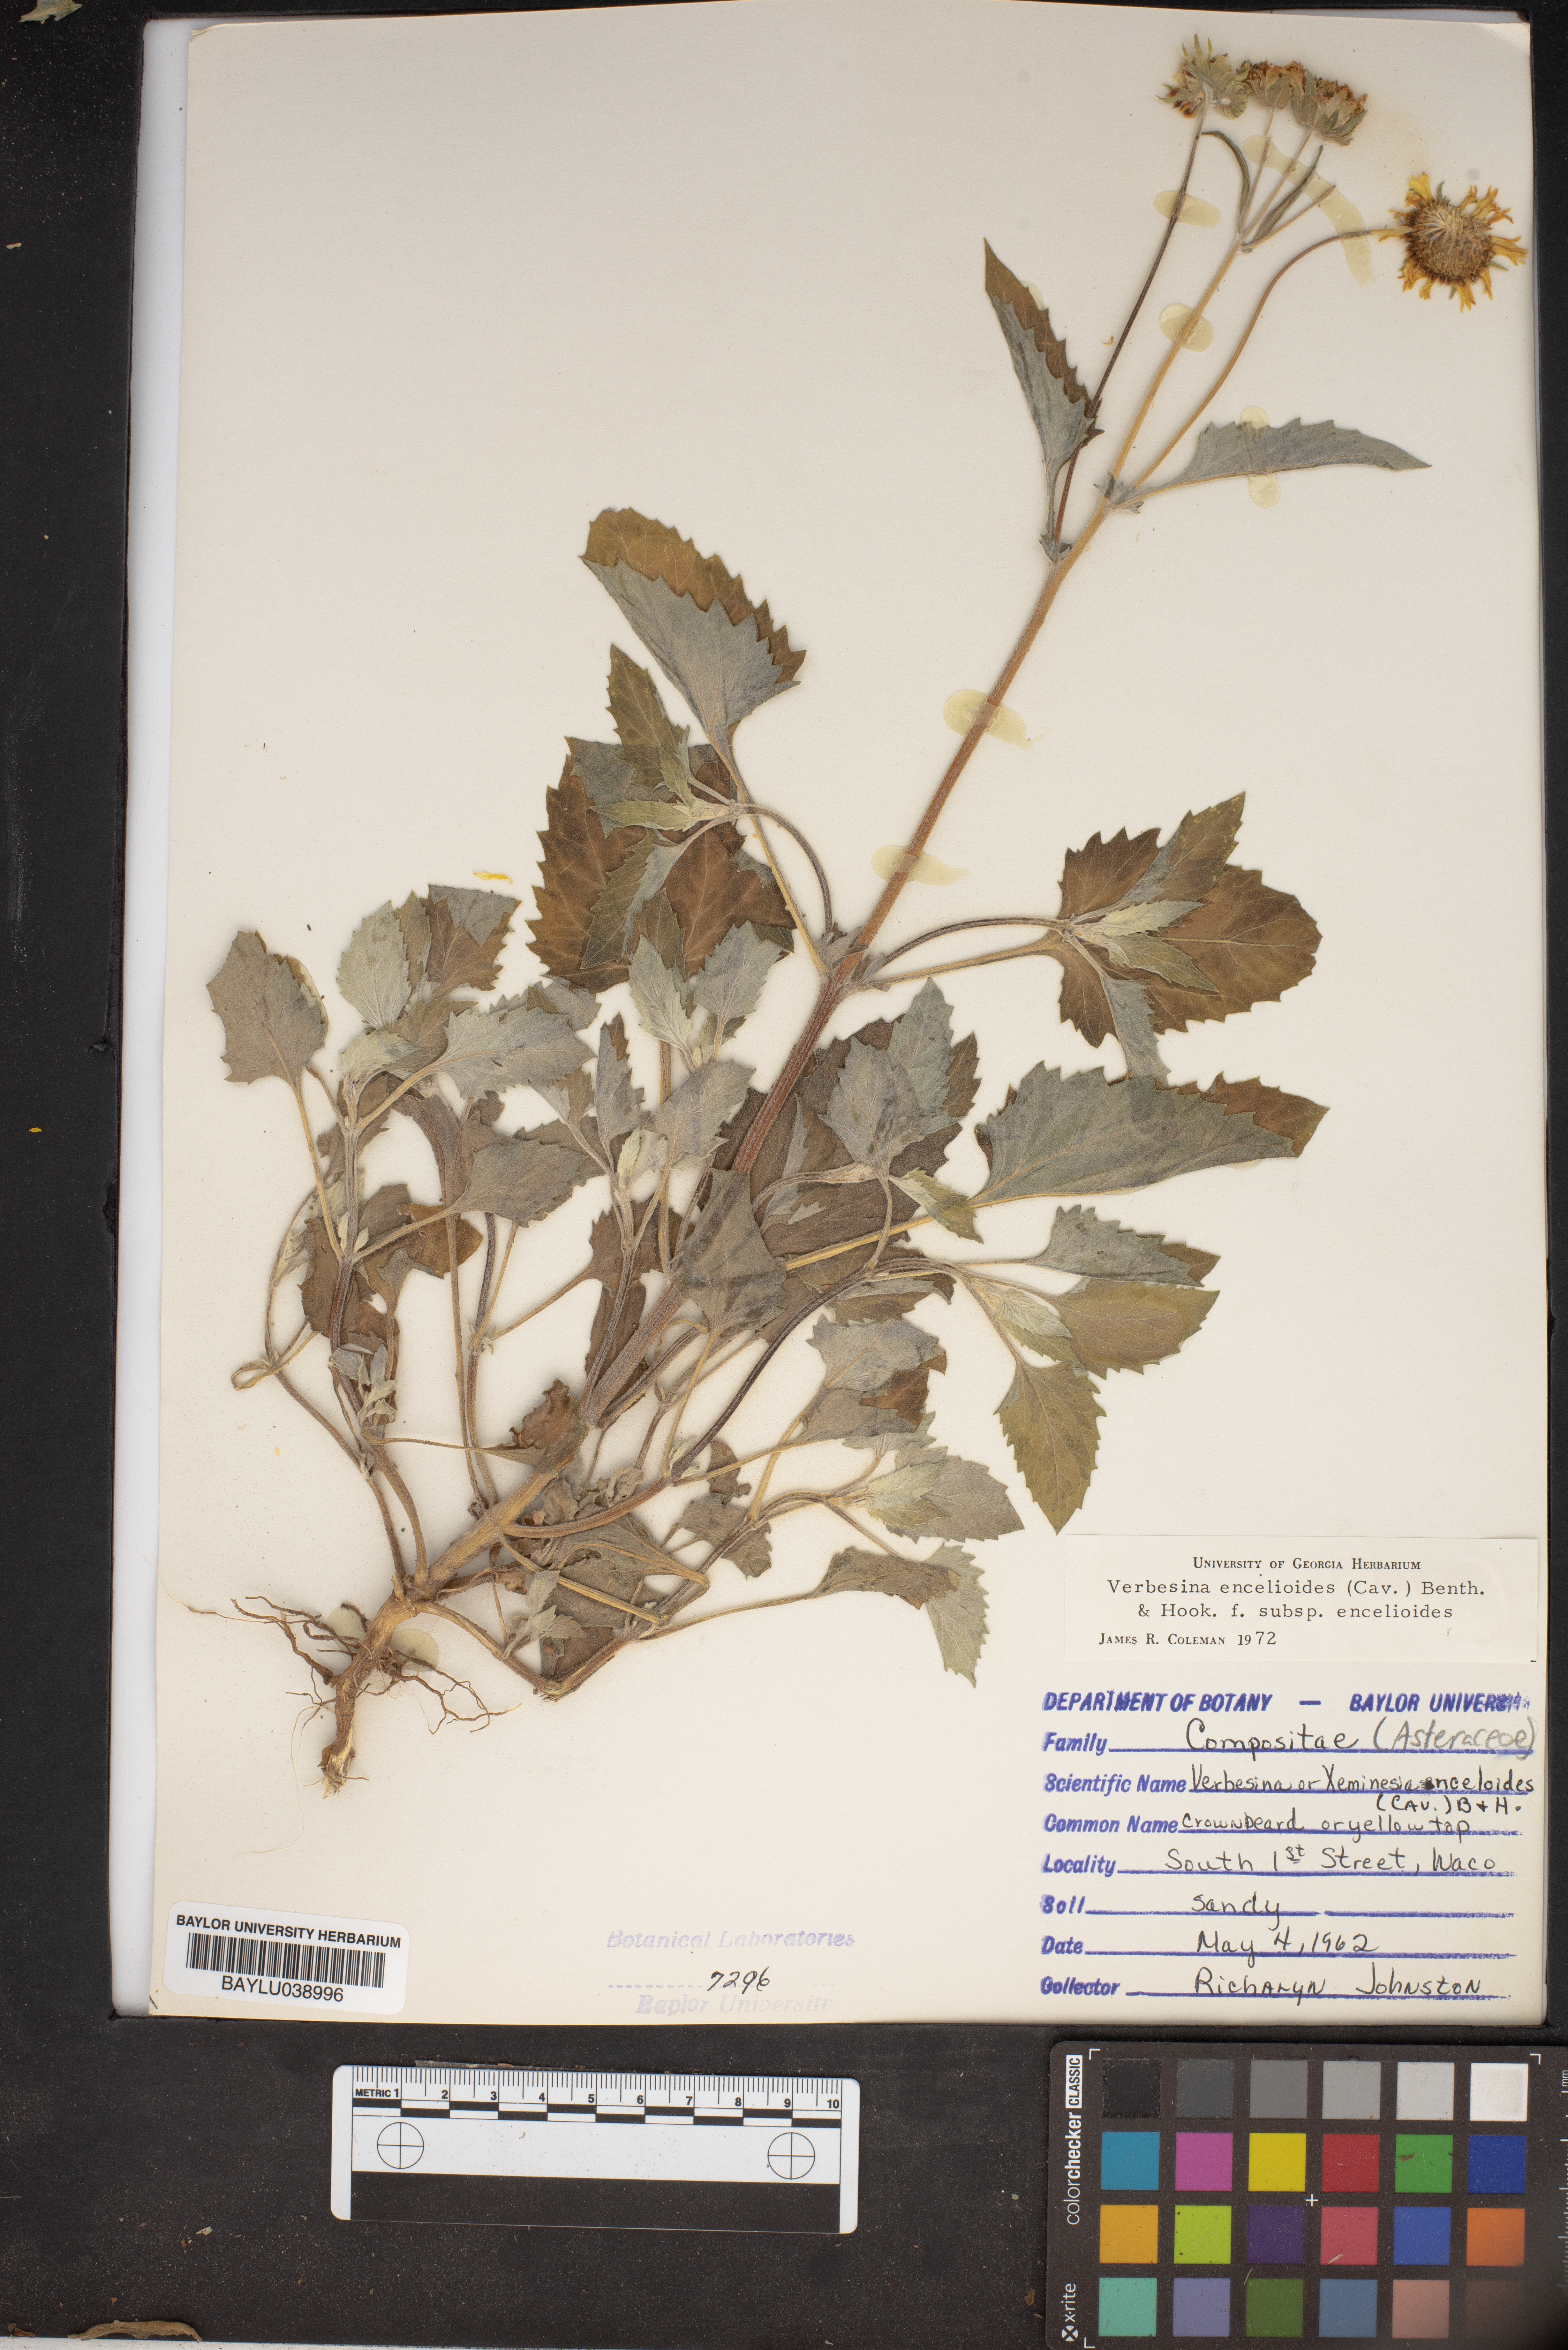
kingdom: Plantae
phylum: Tracheophyta
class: Magnoliopsida
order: Asterales
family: Asteraceae
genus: Verbesina
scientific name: Verbesina encelioides
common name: Golden crownbeard
